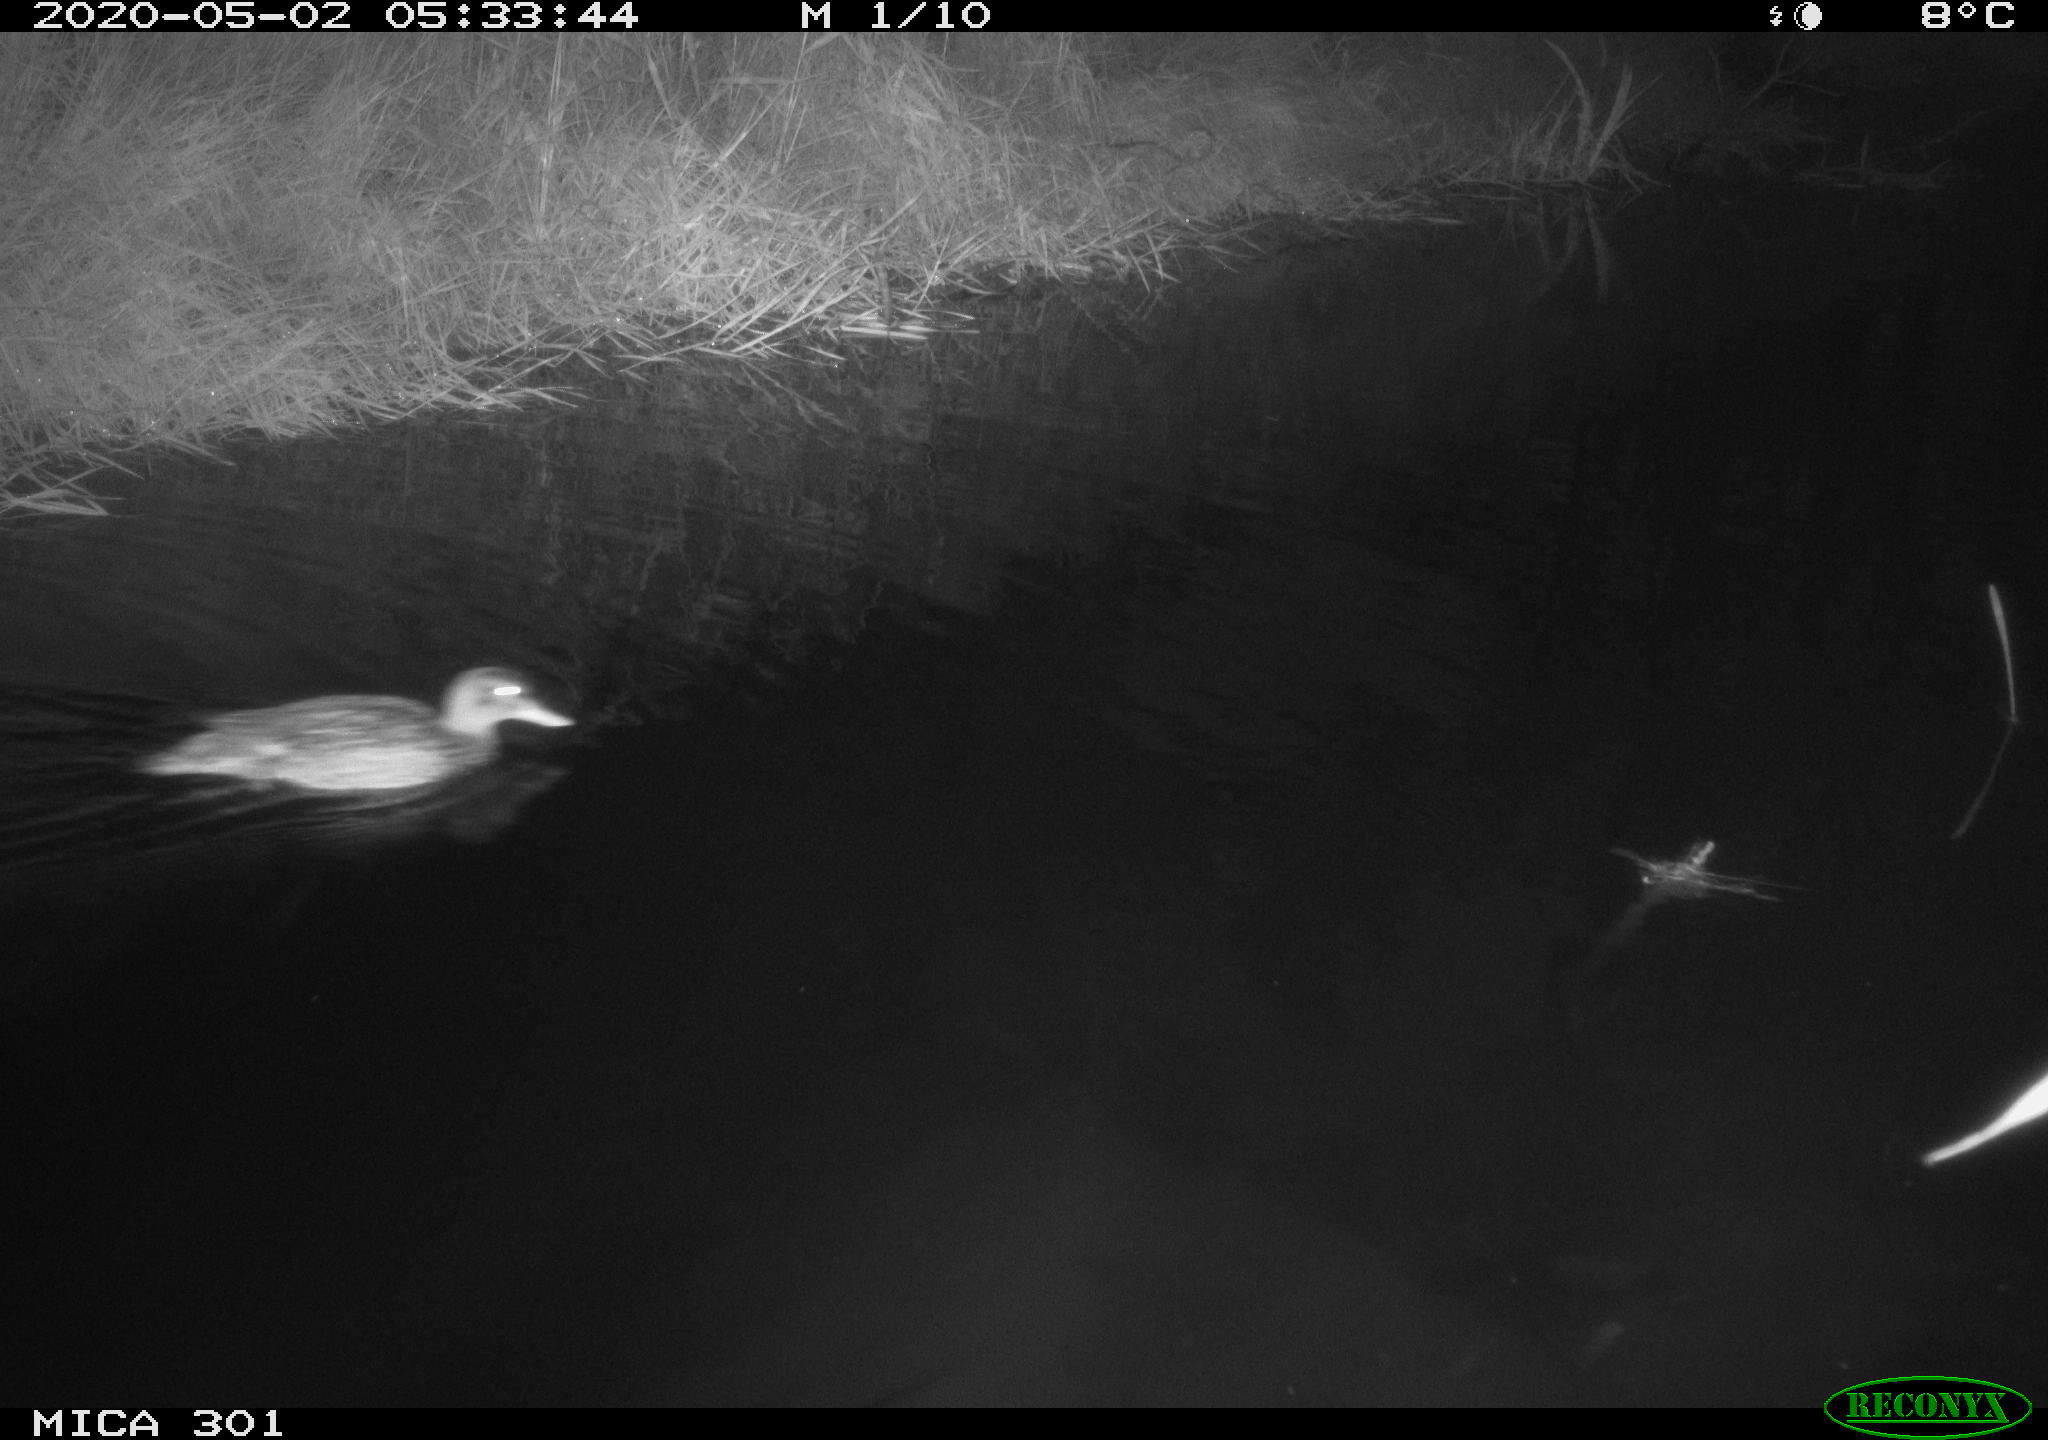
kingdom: Animalia
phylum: Chordata
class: Aves
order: Anseriformes
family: Anatidae
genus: Mareca
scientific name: Mareca strepera
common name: Gadwall
